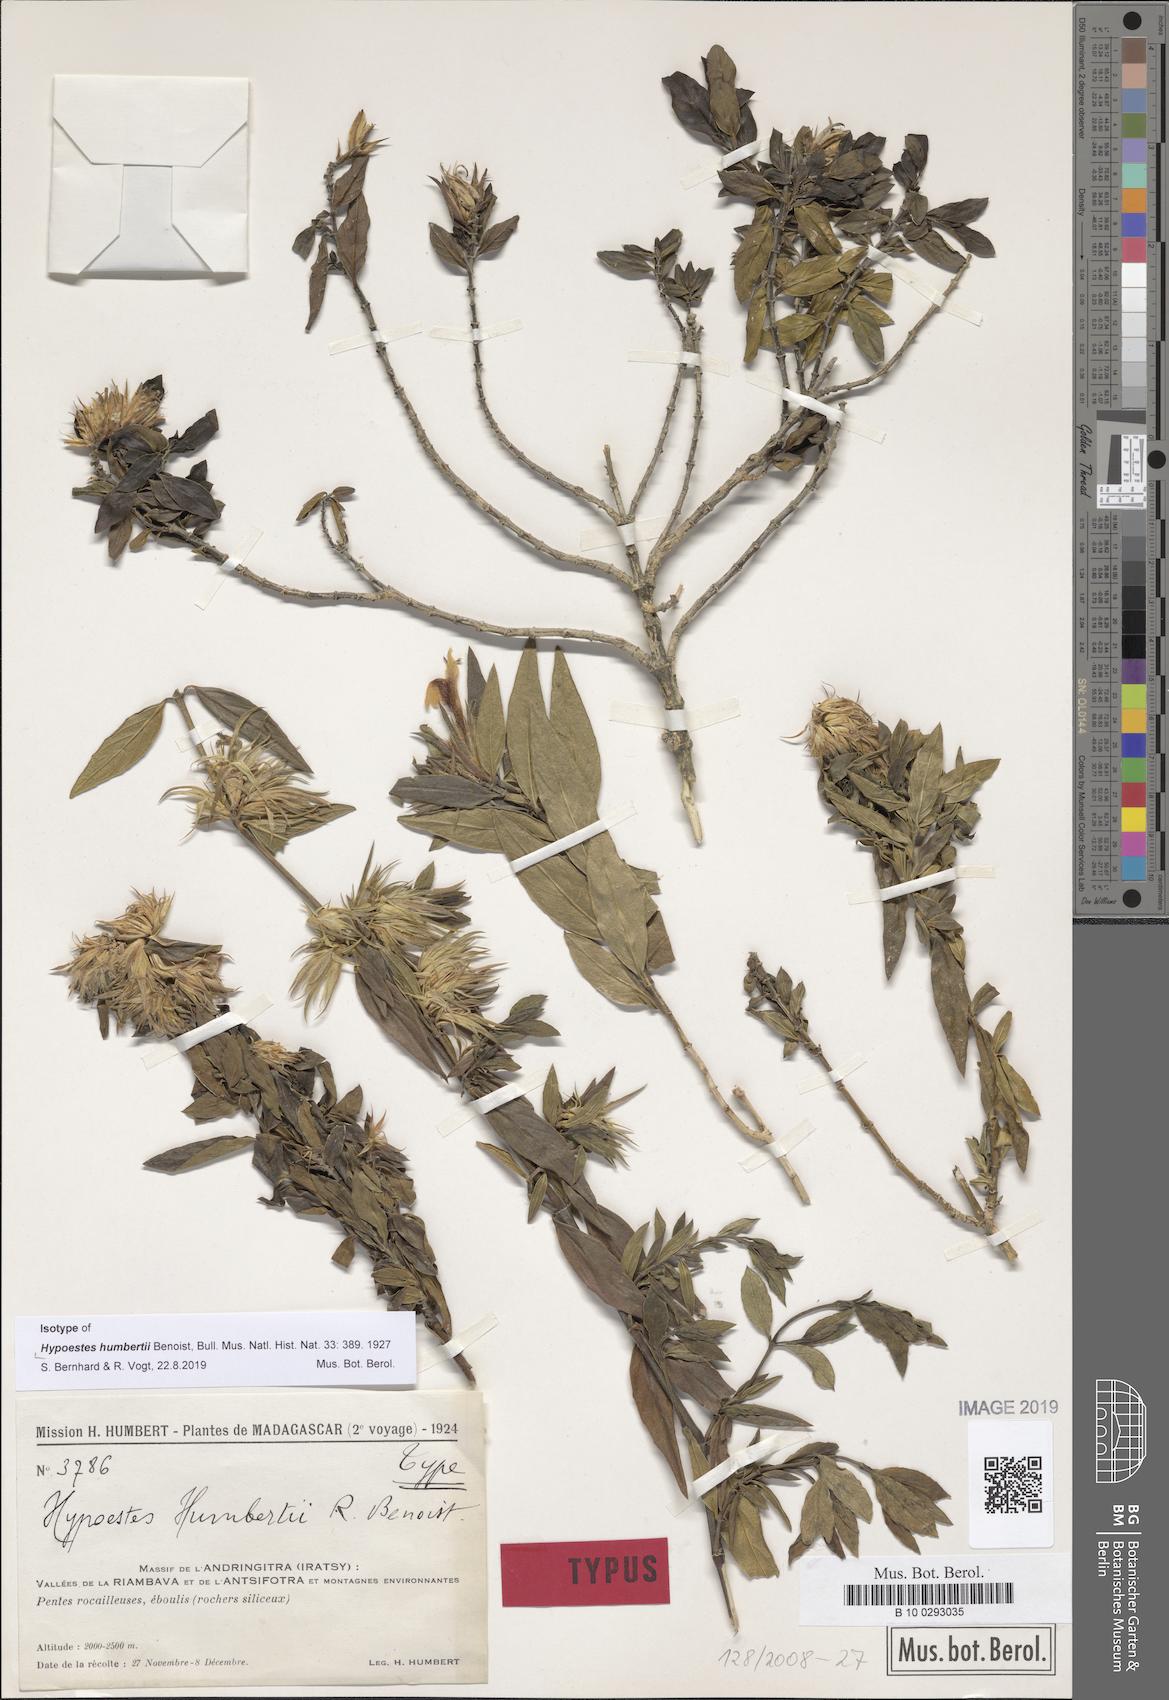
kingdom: Plantae
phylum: Tracheophyta
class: Magnoliopsida
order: Lamiales
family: Acanthaceae
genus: Hypoestes
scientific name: Hypoestes humbertii
